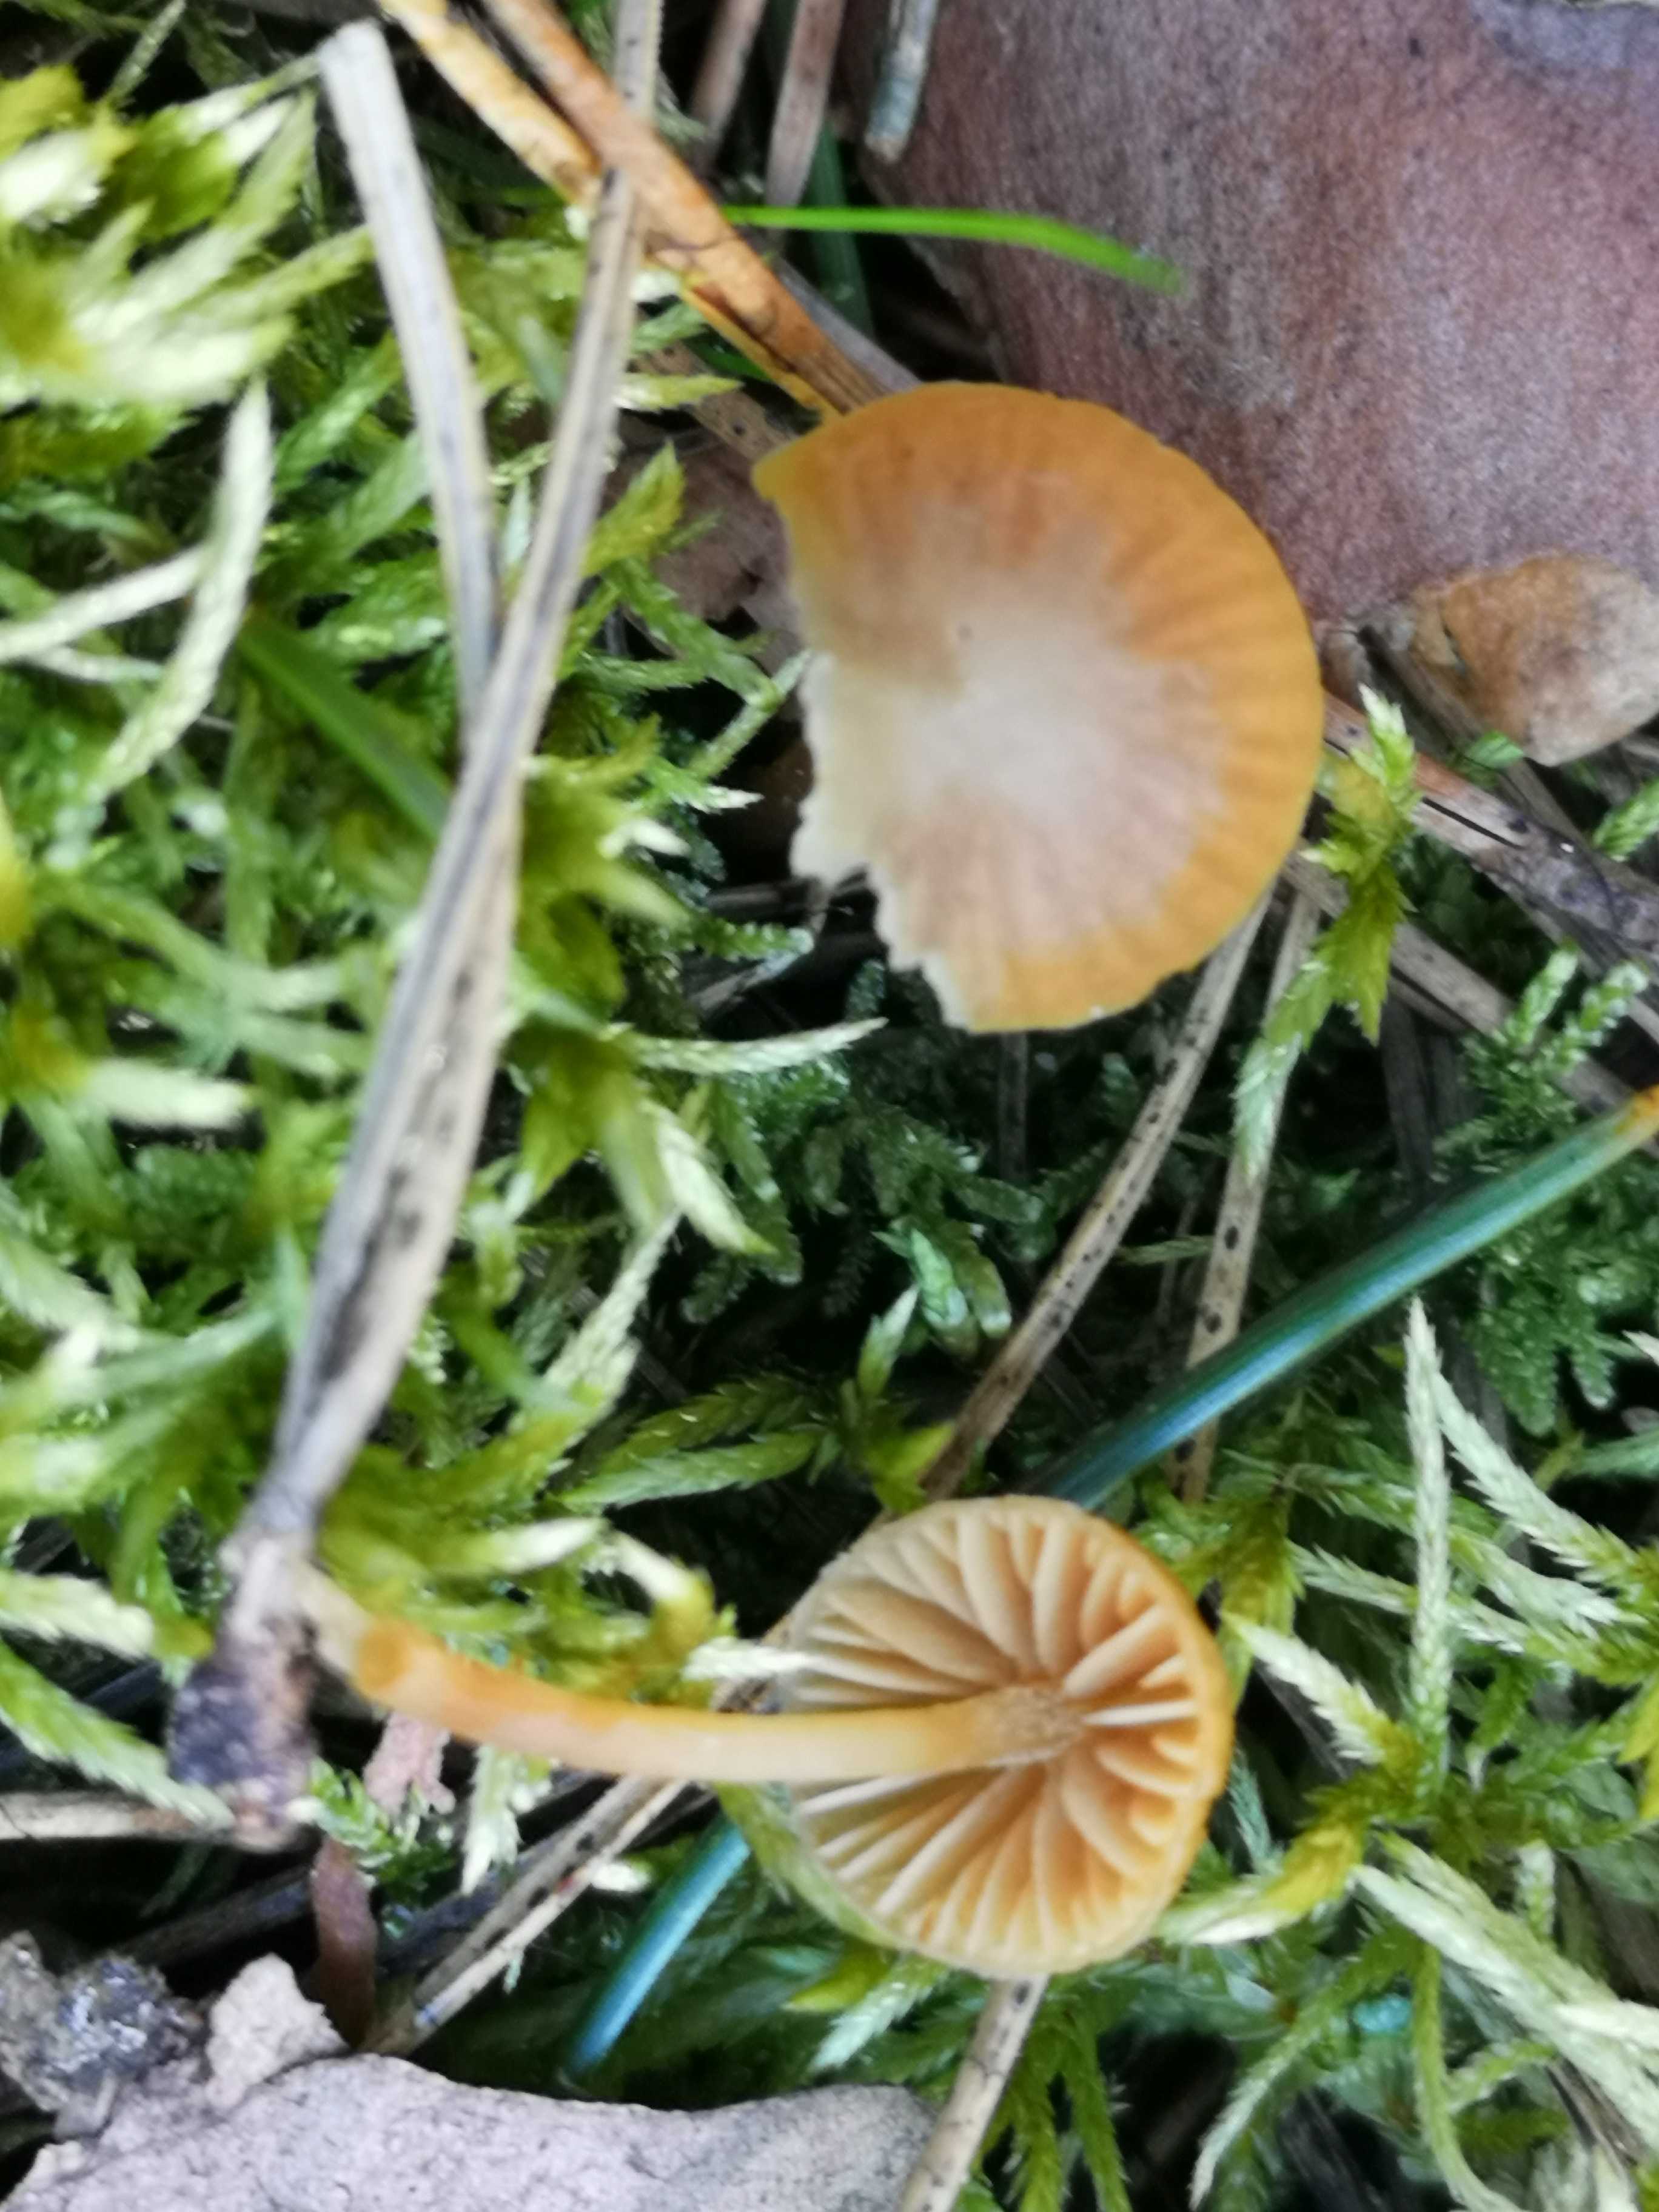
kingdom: Fungi
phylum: Basidiomycota
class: Agaricomycetes
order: Agaricales
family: Hymenogastraceae
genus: Galerina
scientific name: Galerina
